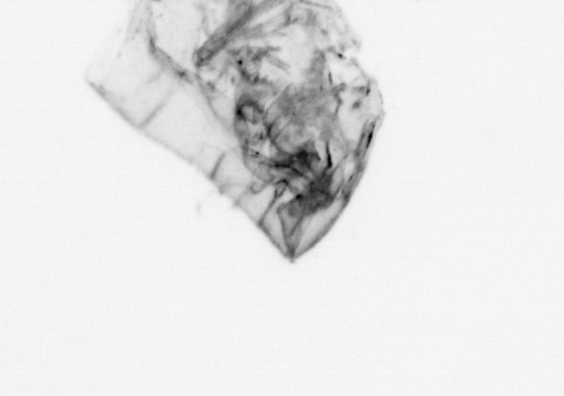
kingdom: Animalia
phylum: Arthropoda
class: Maxillopoda
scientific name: Maxillopoda
